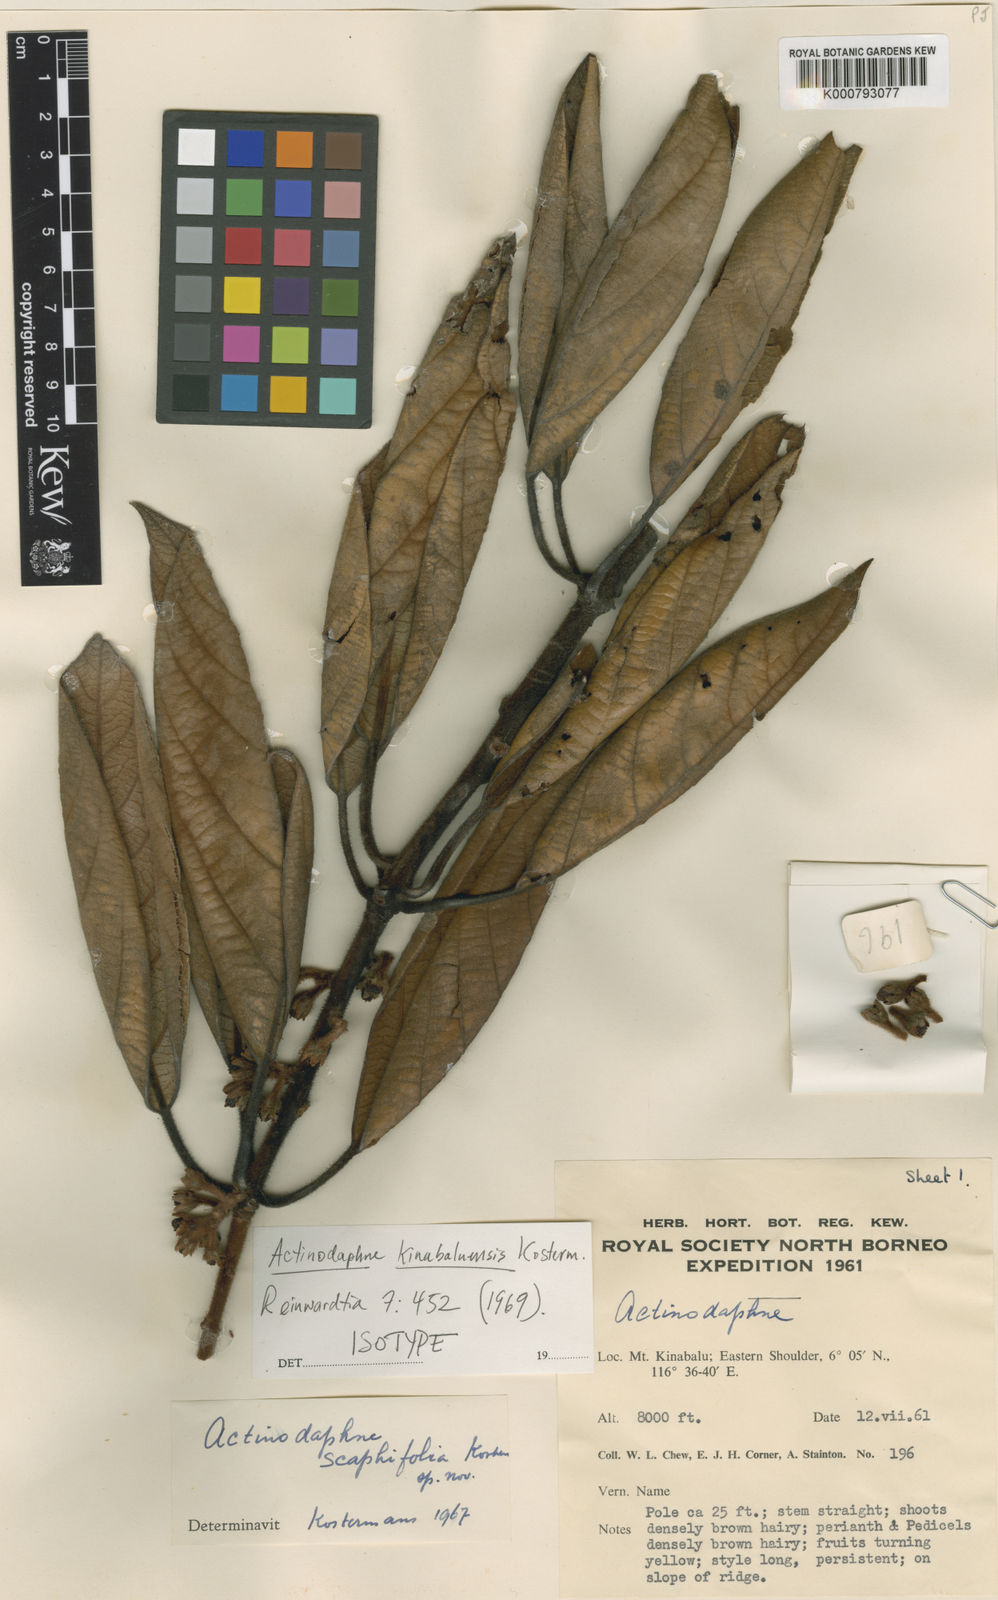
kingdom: Plantae
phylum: Tracheophyta
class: Magnoliopsida
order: Laurales
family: Lauraceae
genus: Actinodaphne
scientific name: Actinodaphne kinabaluensis
